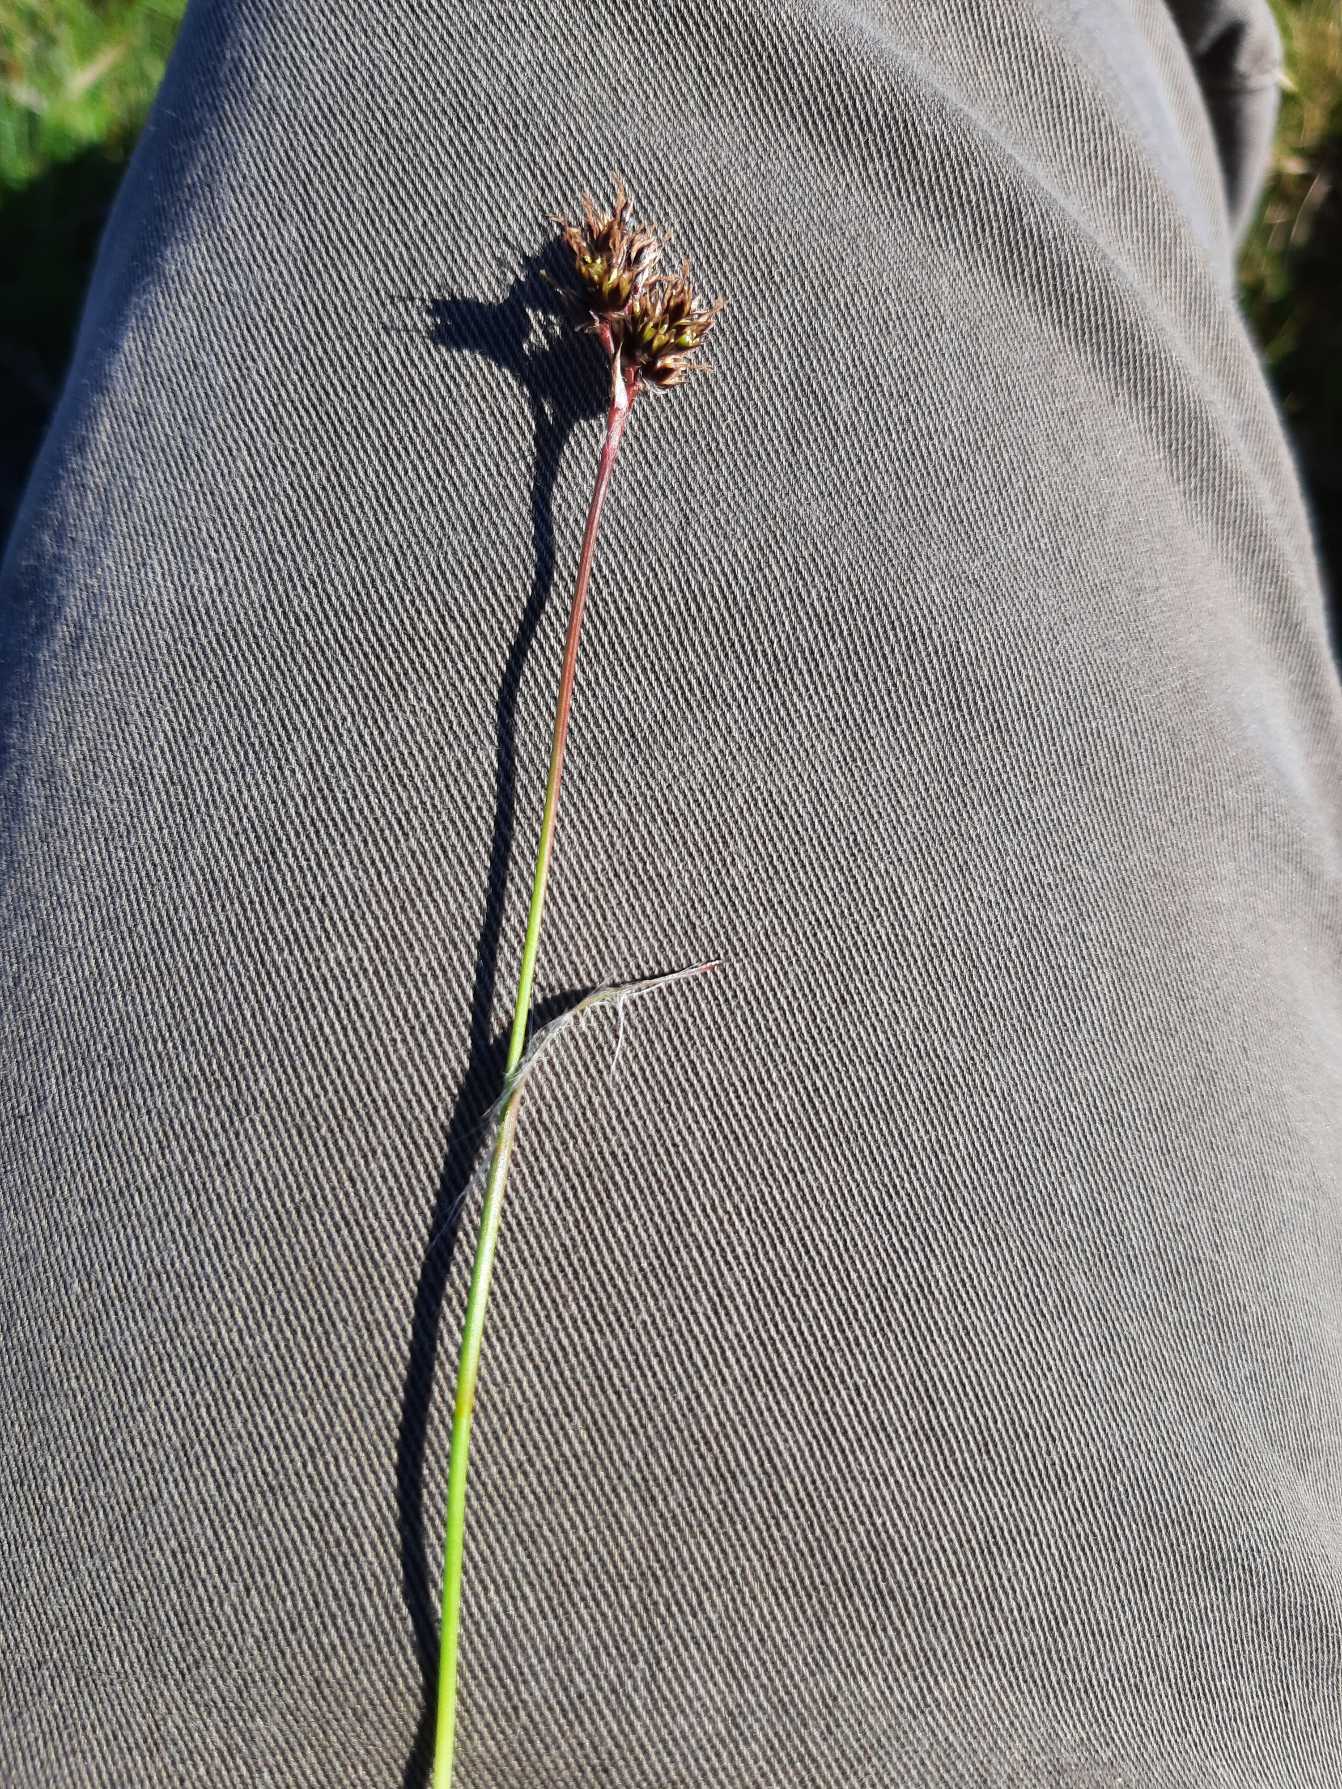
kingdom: Plantae
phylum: Tracheophyta
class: Liliopsida
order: Poales
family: Juncaceae
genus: Luzula
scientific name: Luzula campestris
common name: Mark-frytle
